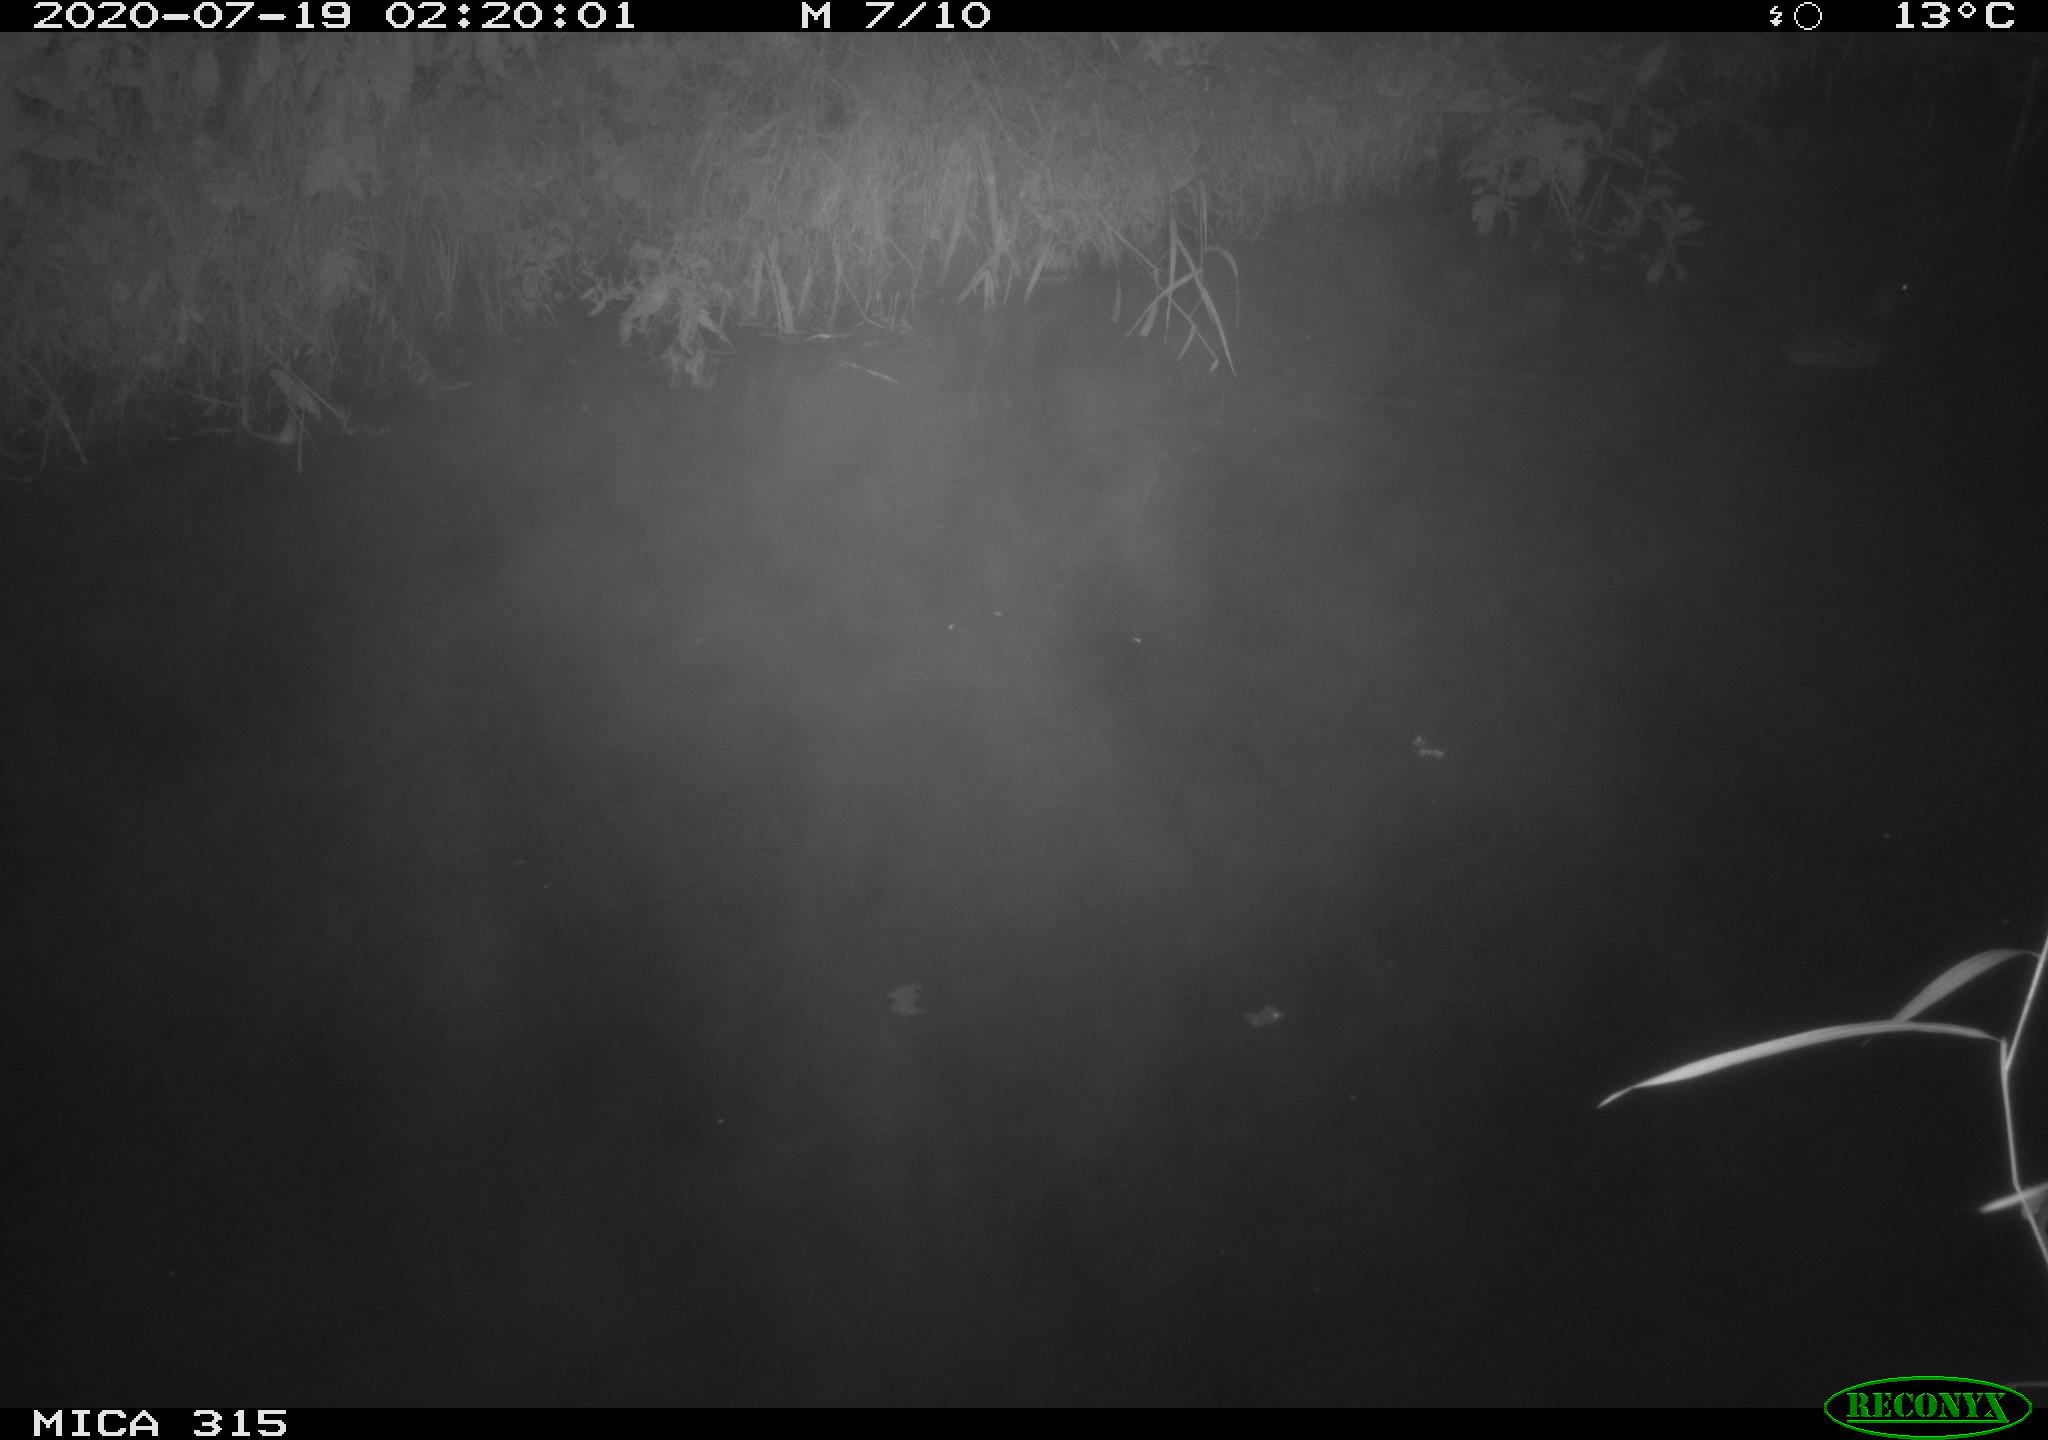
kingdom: Animalia
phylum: Chordata
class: Aves
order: Anseriformes
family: Anatidae
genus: Anas
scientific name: Anas platyrhynchos
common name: Mallard
